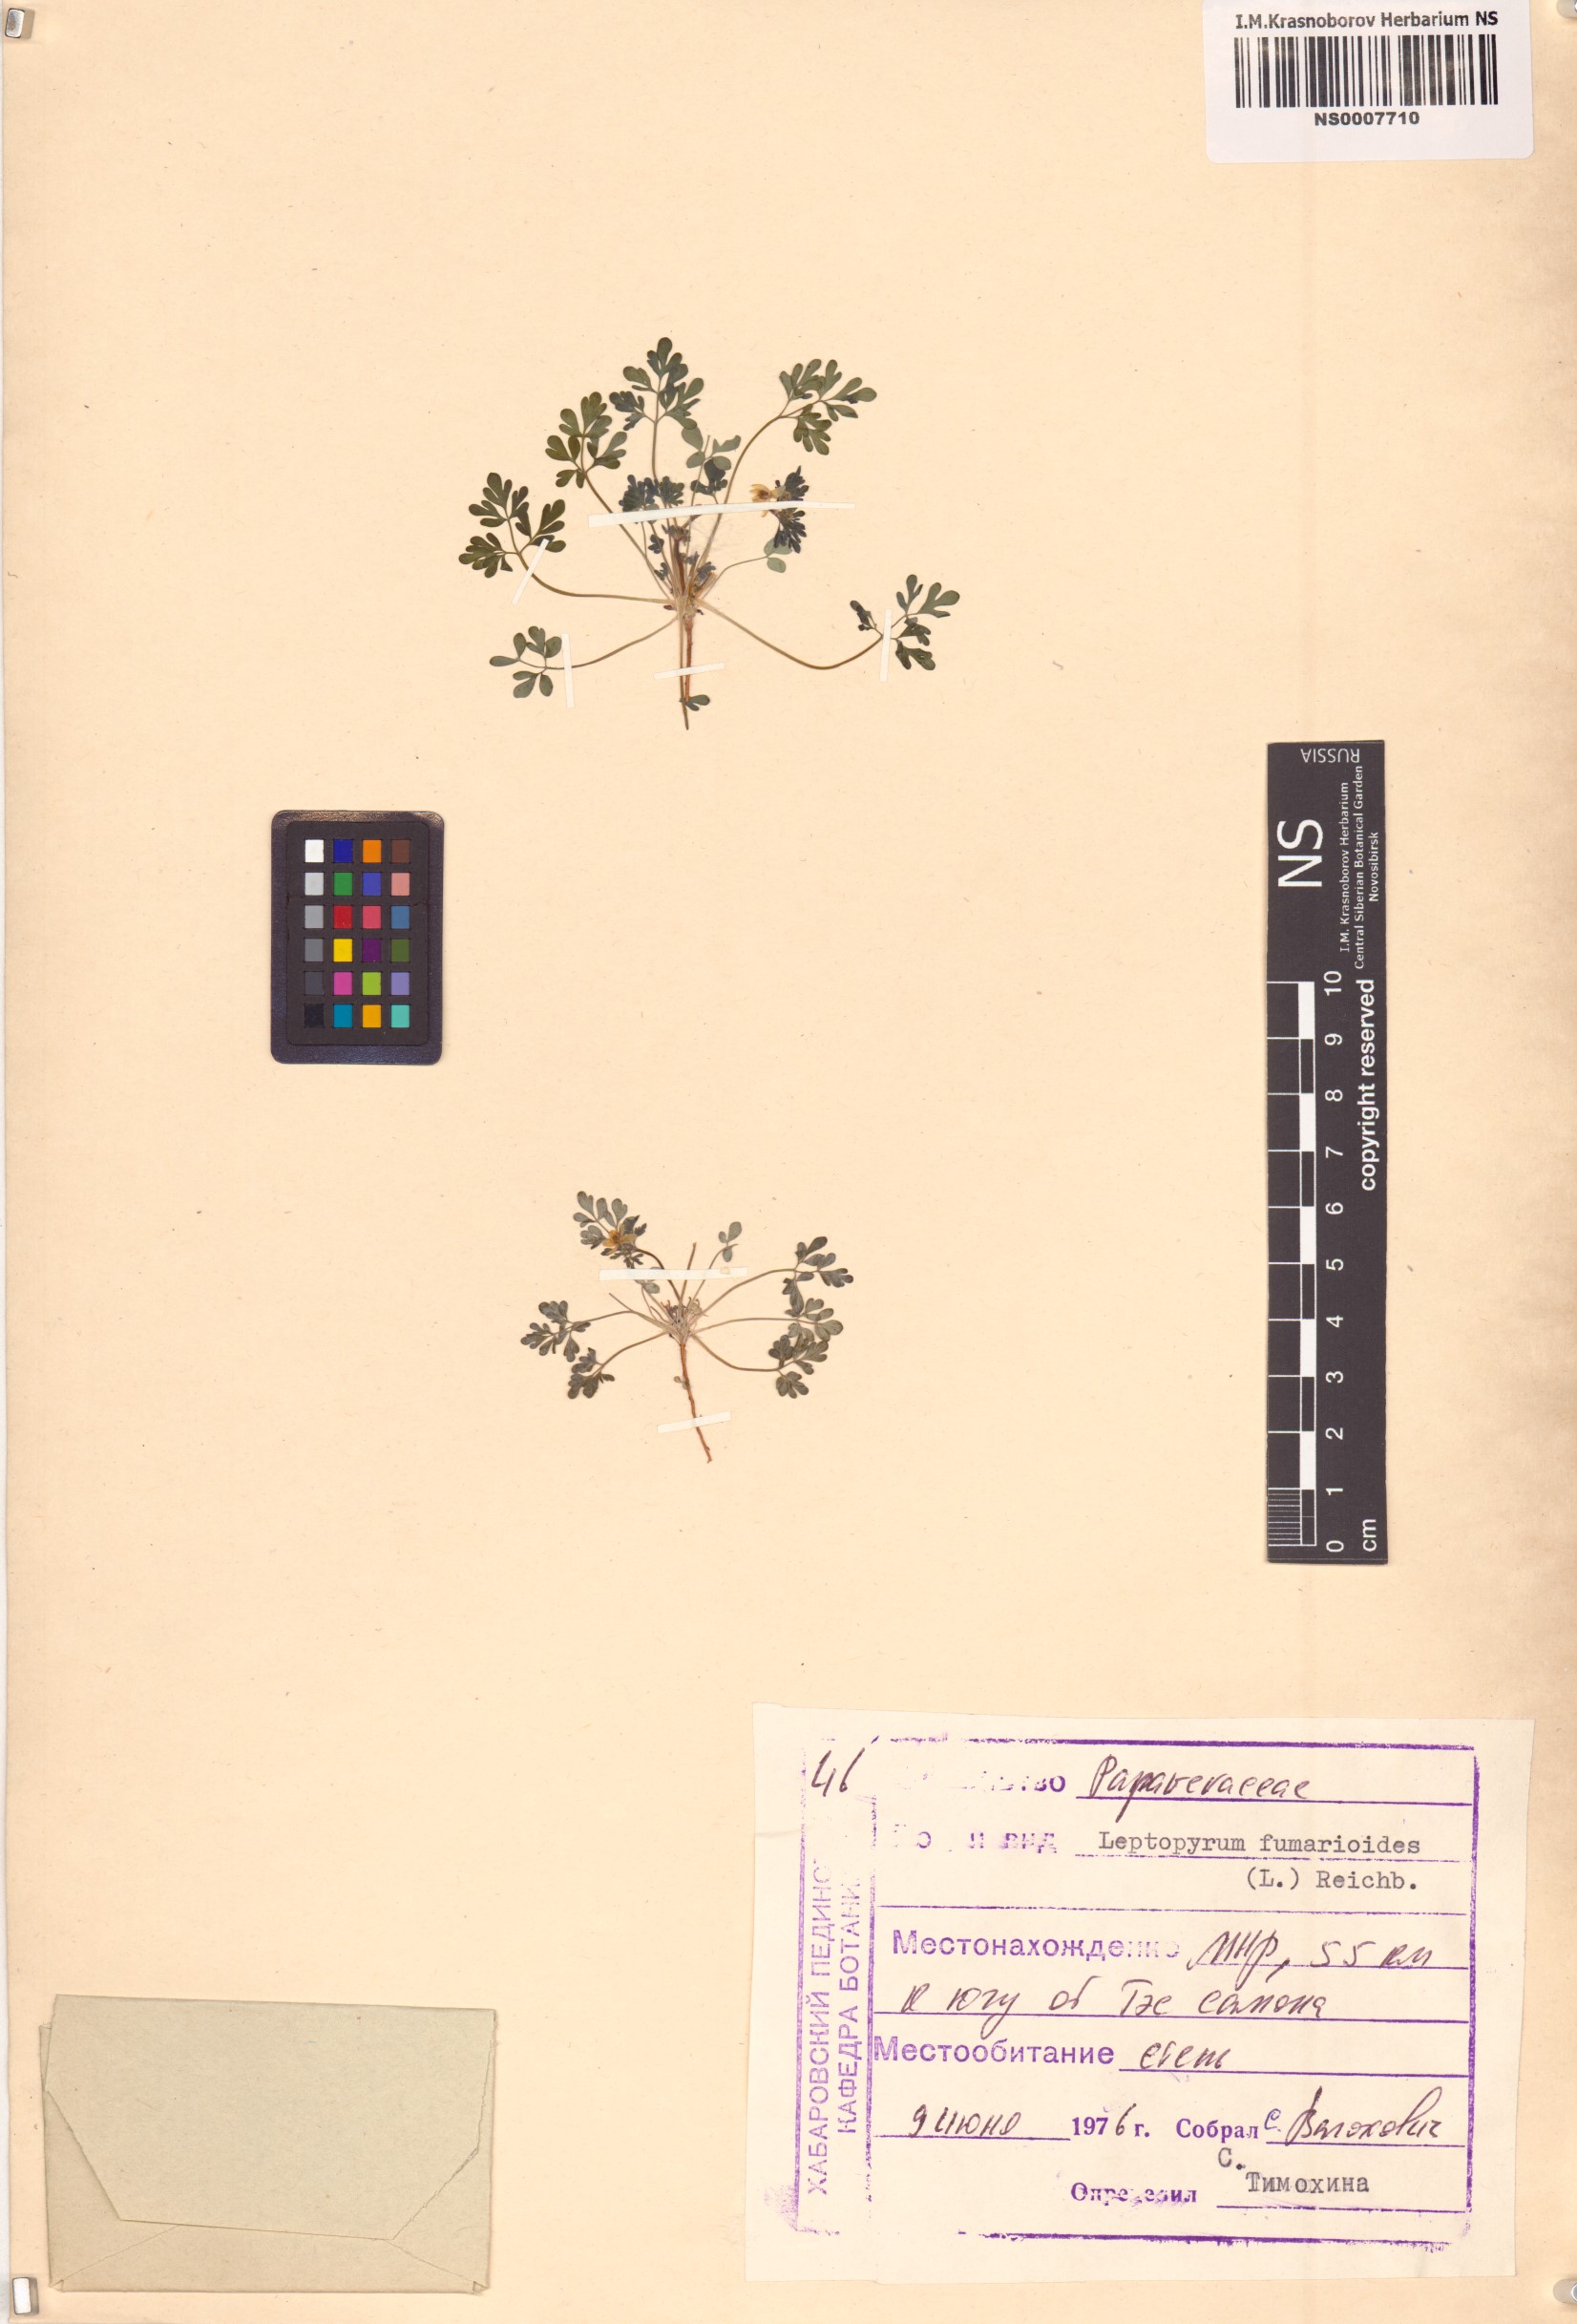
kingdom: Plantae
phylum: Tracheophyta
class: Magnoliopsida
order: Ranunculales
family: Ranunculaceae
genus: Leptopyrum
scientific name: Leptopyrum fumarioides
